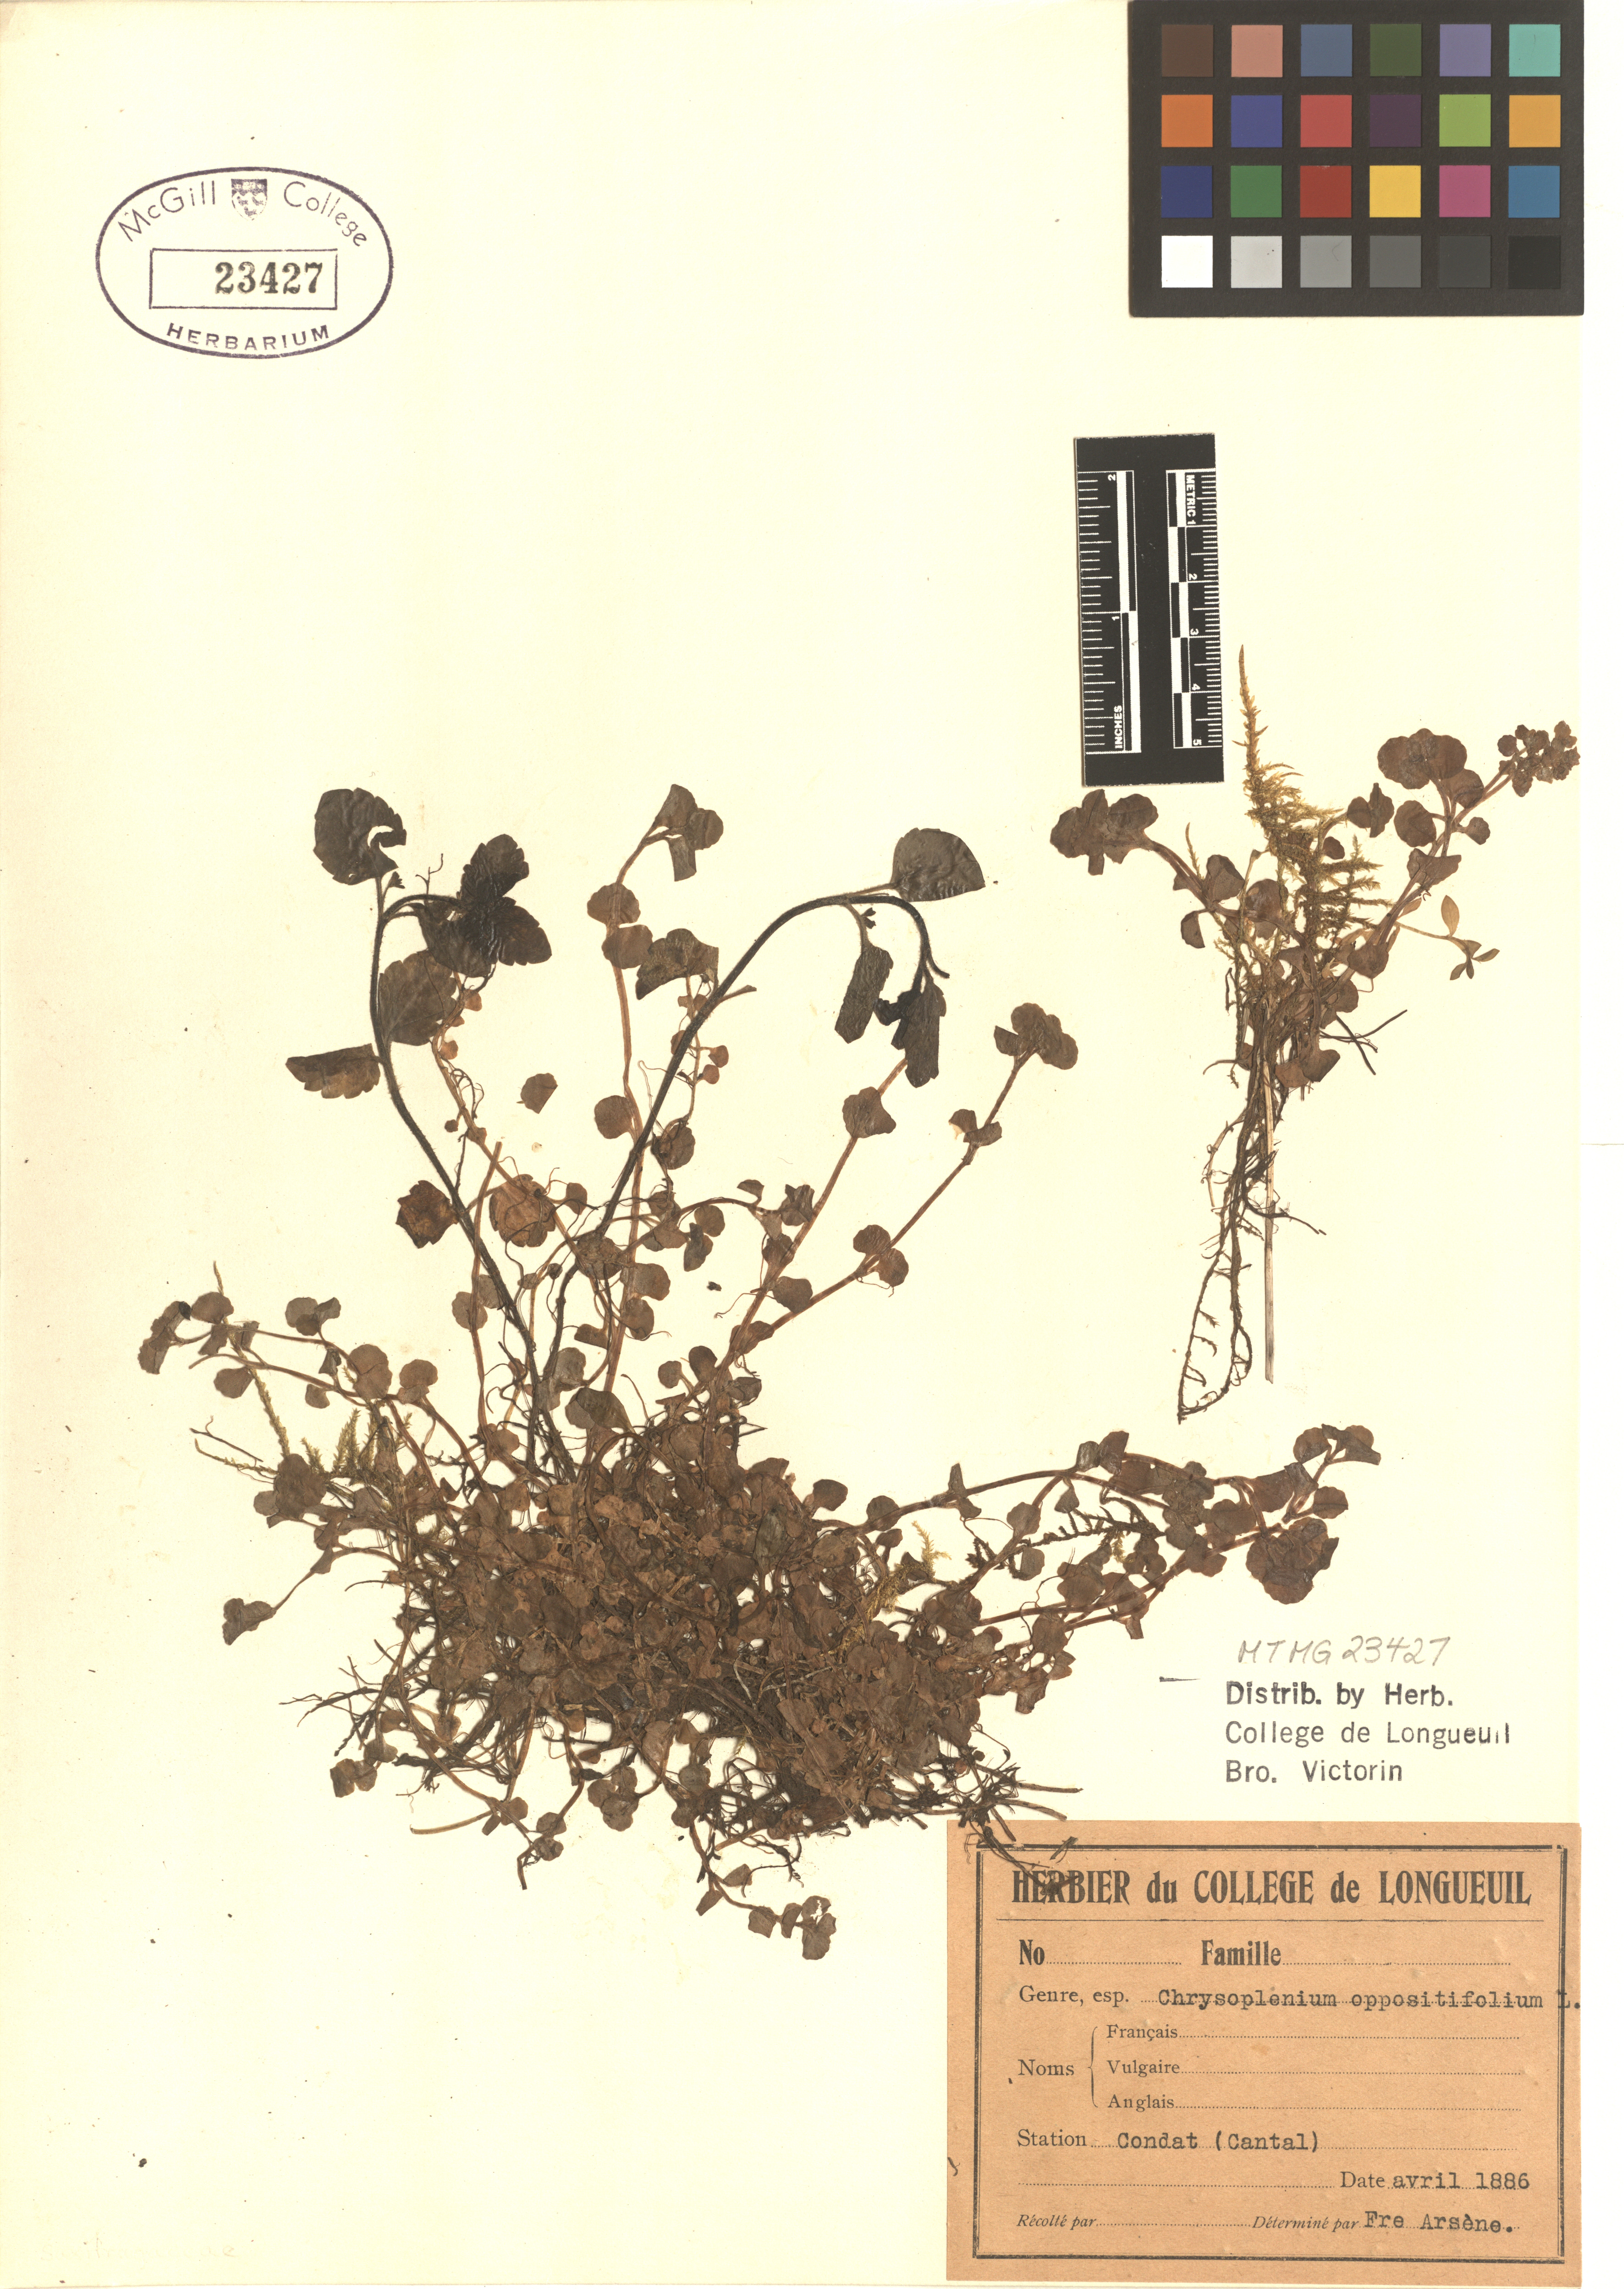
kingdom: Plantae
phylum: Tracheophyta
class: Magnoliopsida
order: Saxifragales
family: Saxifragaceae
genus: Chrysosplenium
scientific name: Chrysosplenium oppositifolium
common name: Opposite-leaved golden-saxifrage
